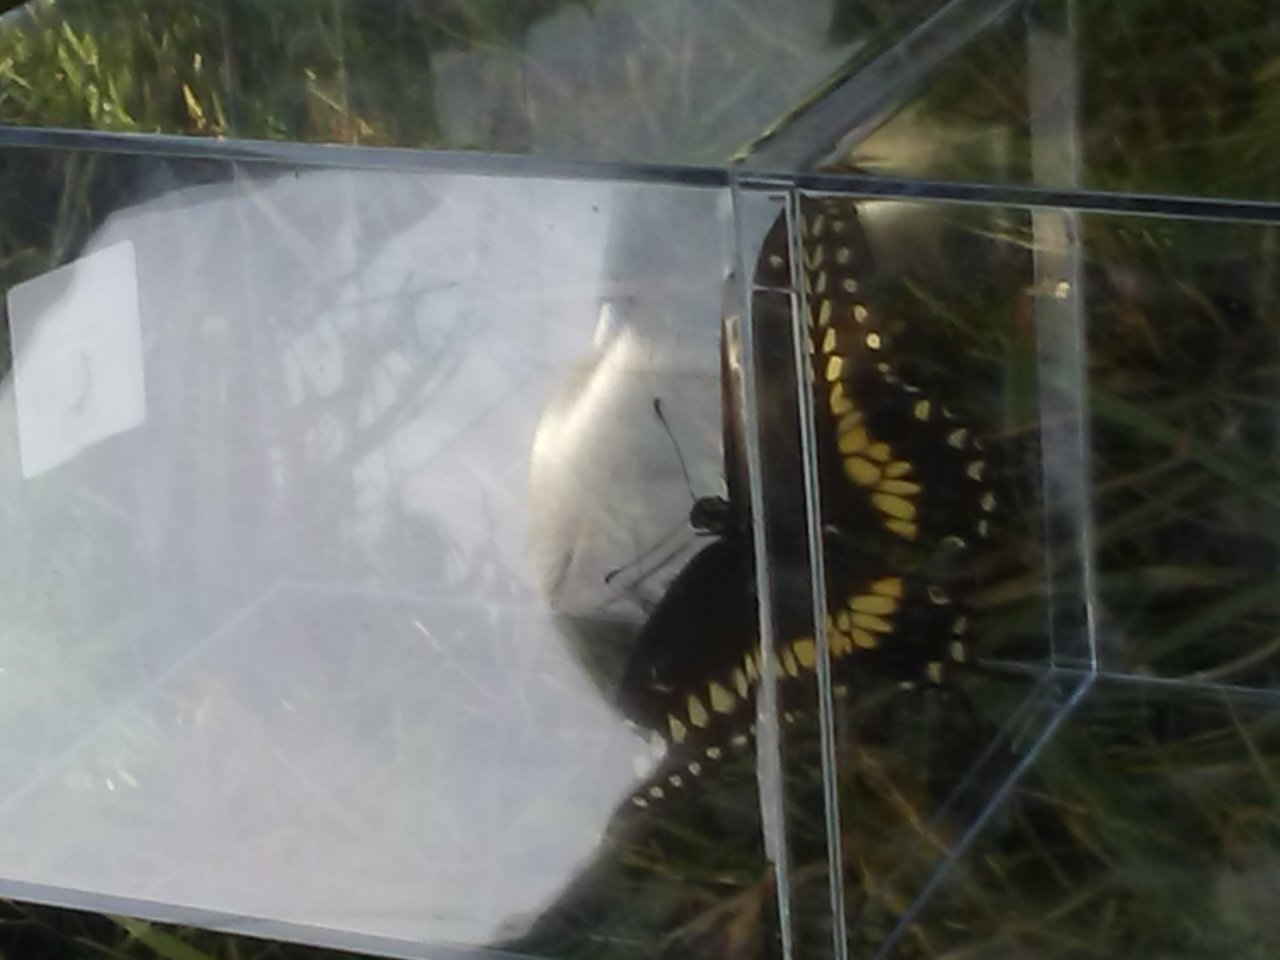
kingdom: Animalia
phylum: Arthropoda
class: Insecta
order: Lepidoptera
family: Papilionidae
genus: Papilio
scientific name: Papilio polyxenes
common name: Black Swallowtail
